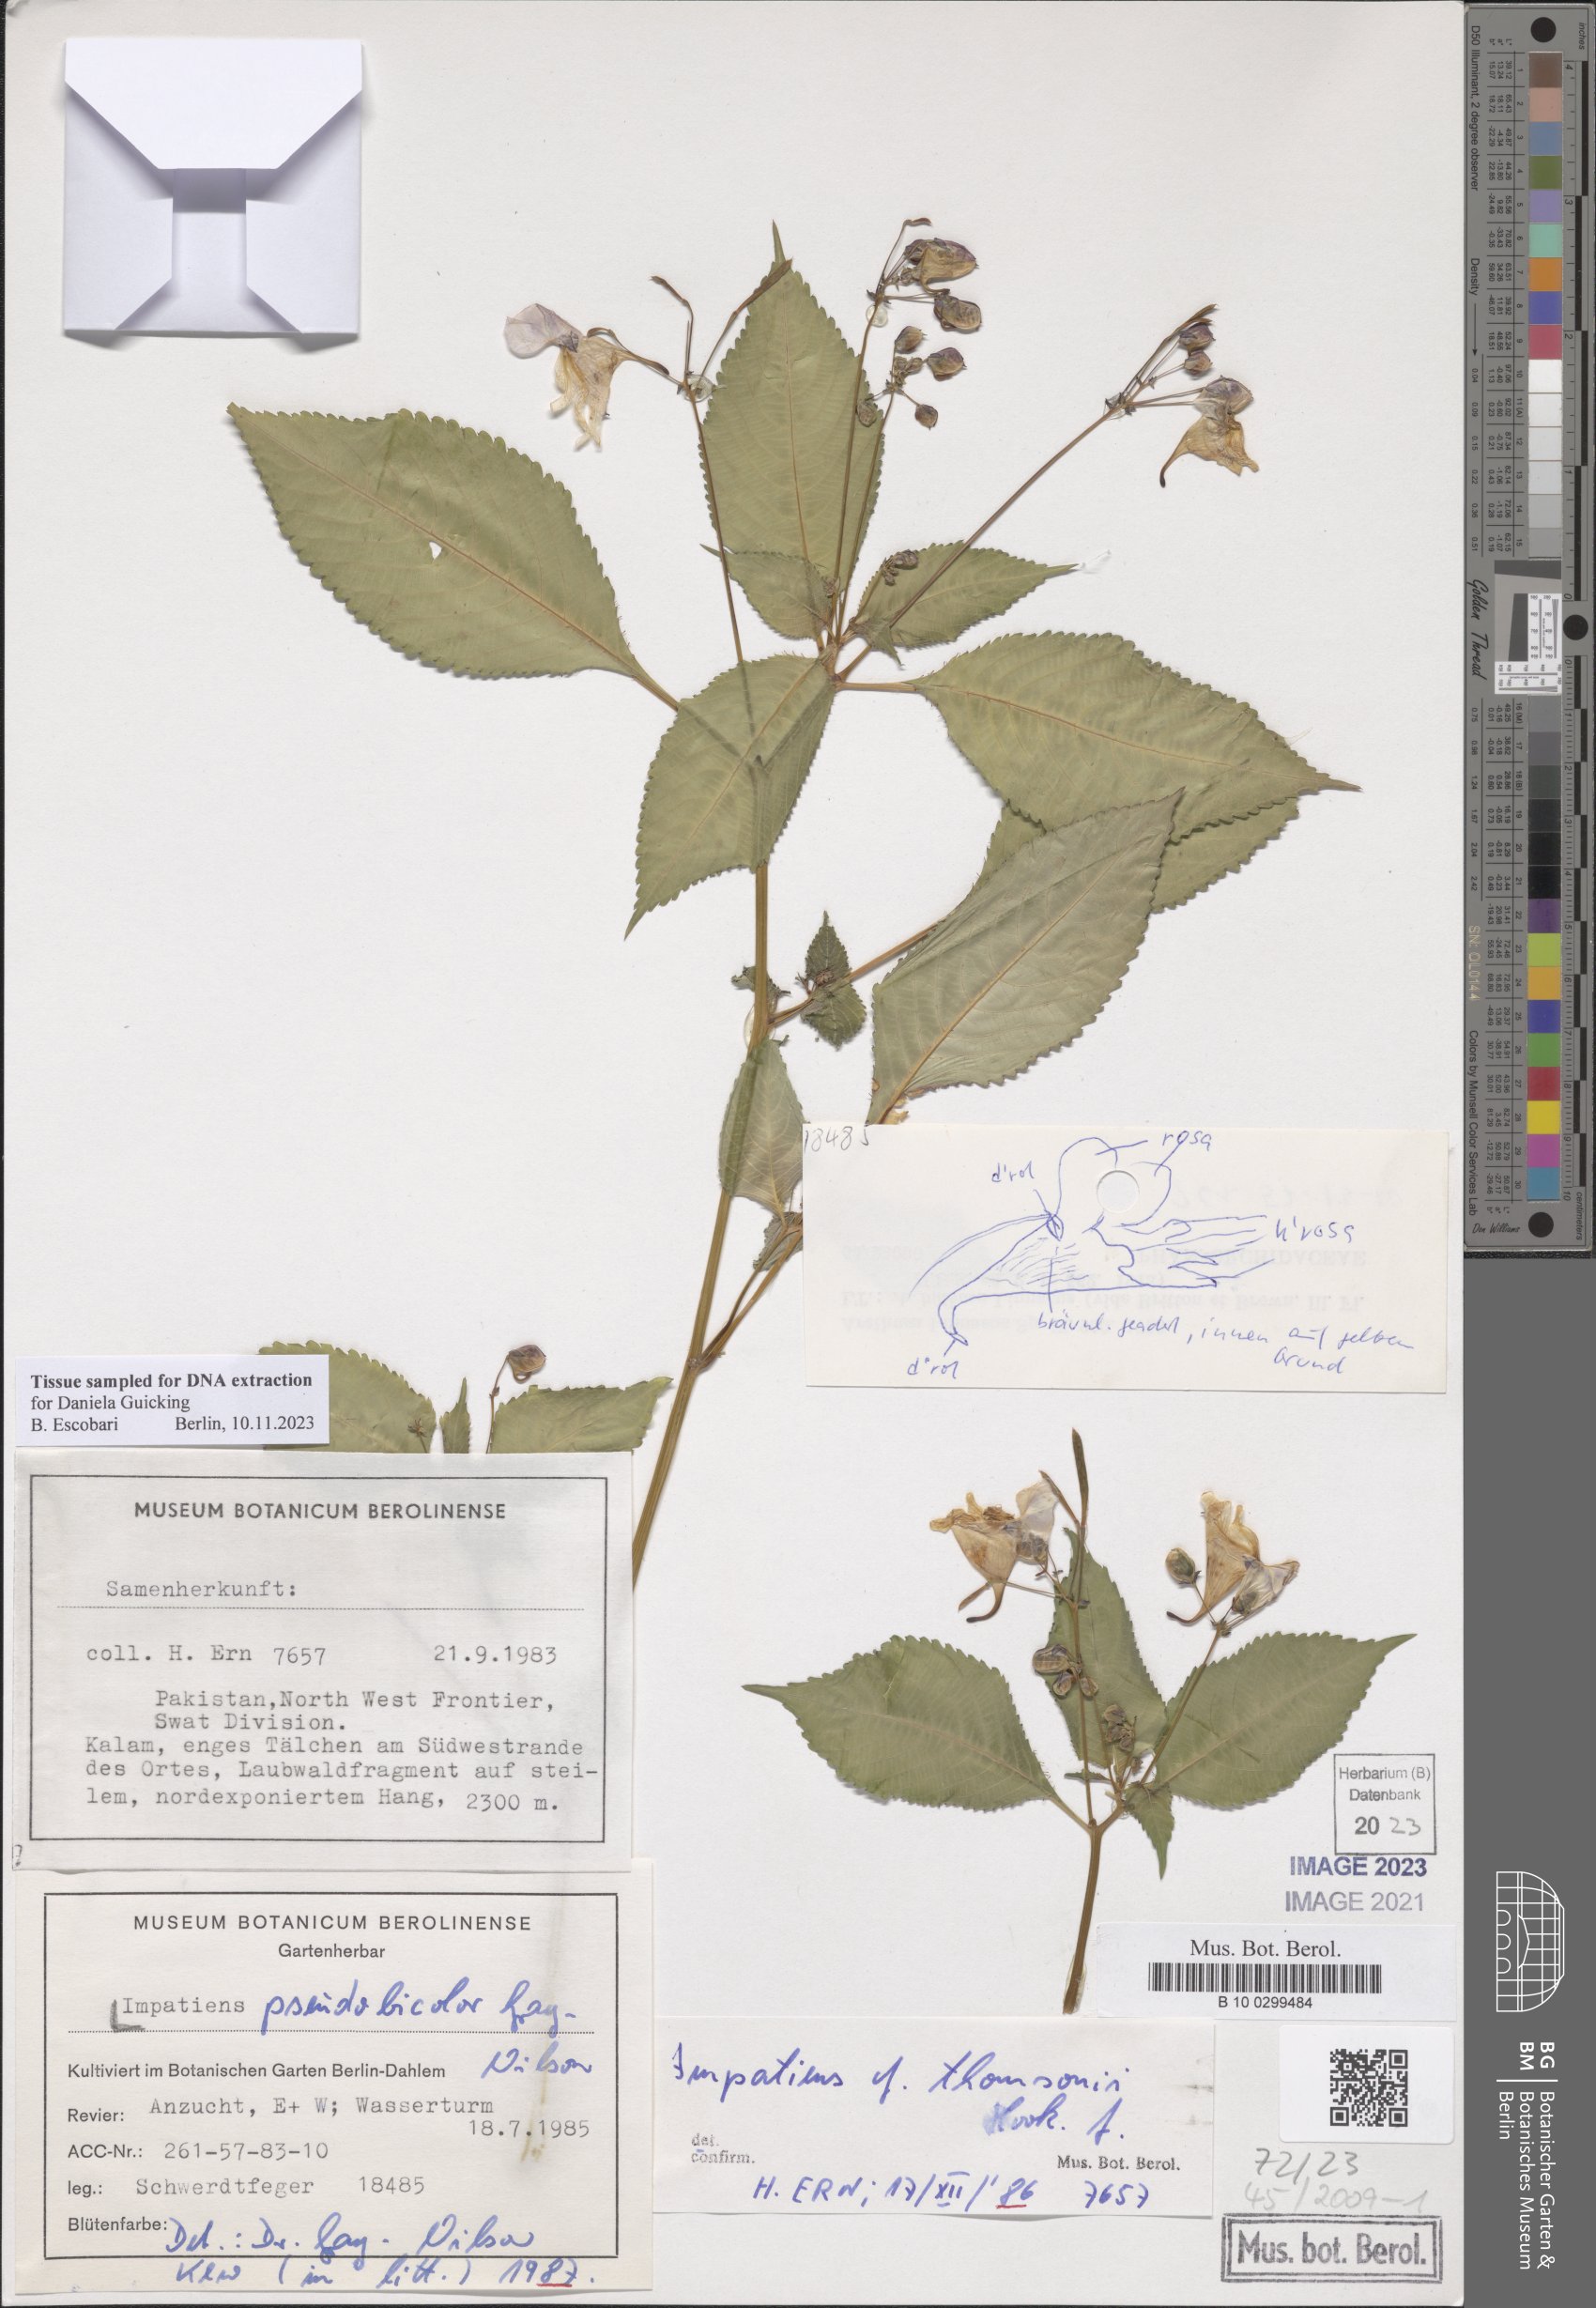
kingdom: Plantae
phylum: Tracheophyta
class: Magnoliopsida
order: Ericales
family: Balsaminaceae
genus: Impatiens
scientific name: Impatiens bicolor
